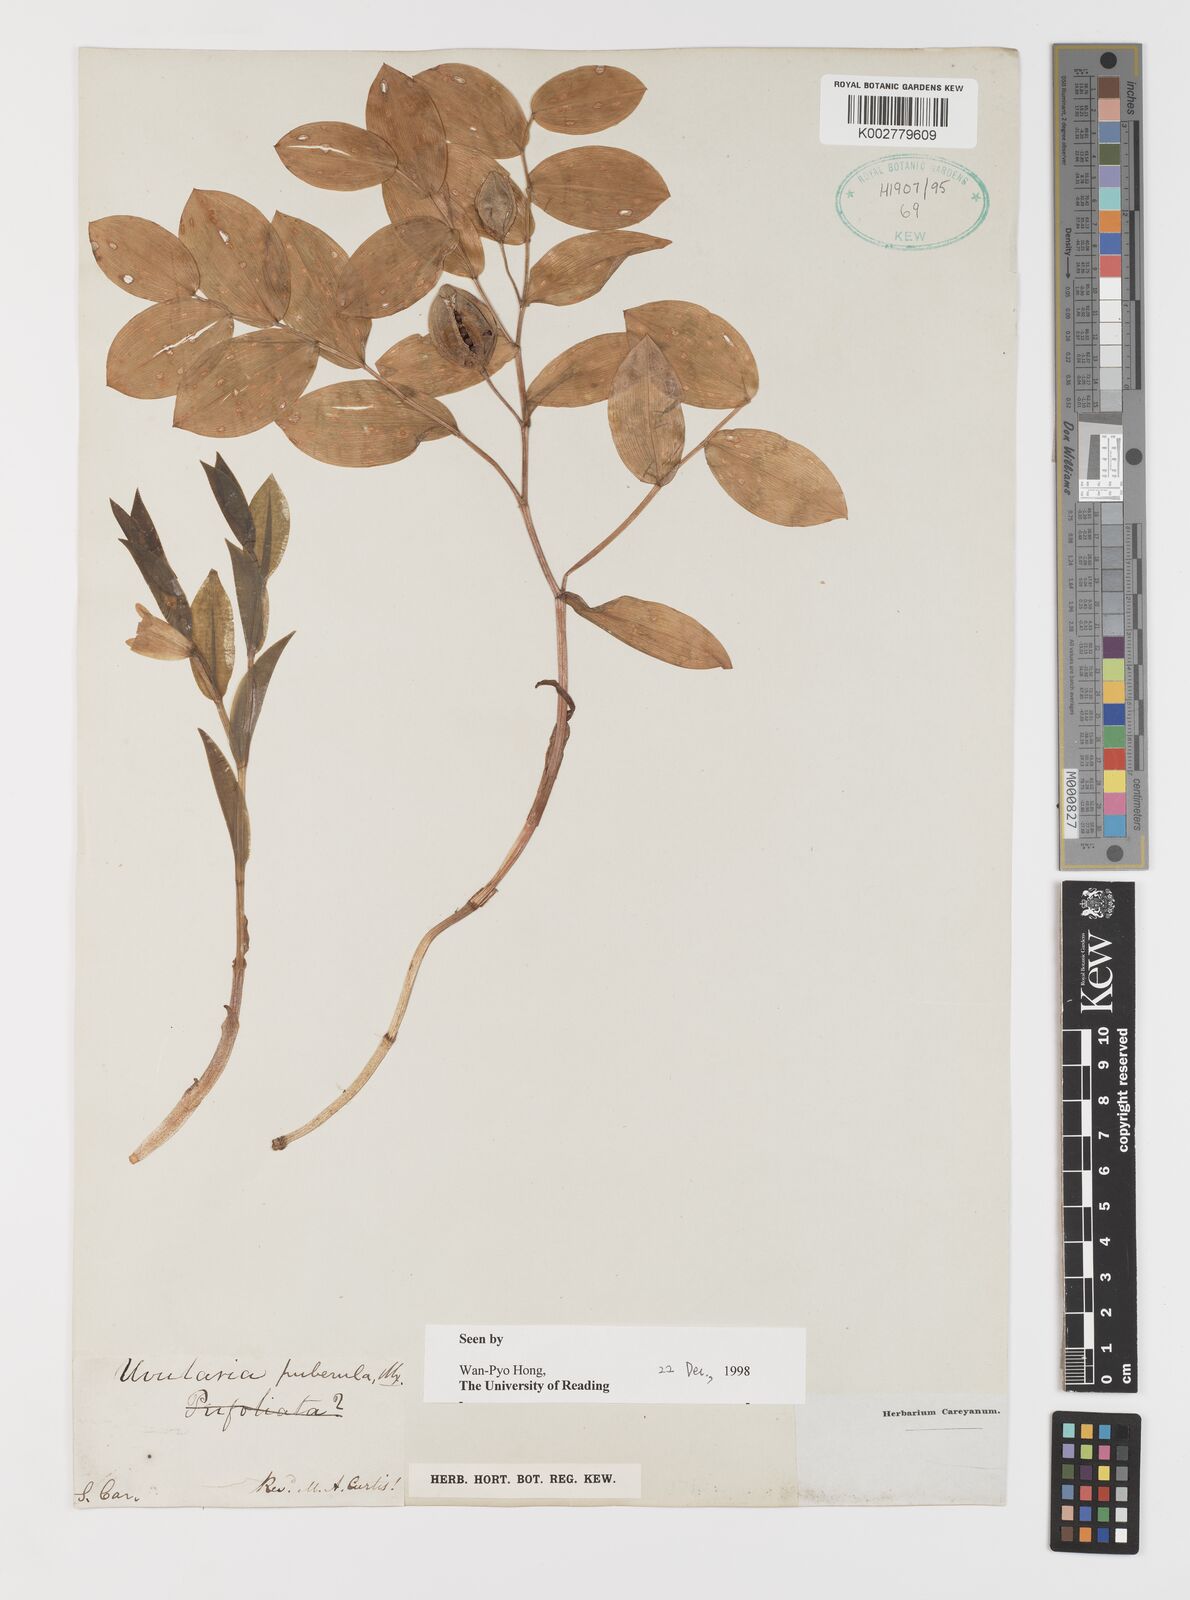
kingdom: Plantae
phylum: Tracheophyta
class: Liliopsida
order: Liliales
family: Colchicaceae
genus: Uvularia
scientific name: Uvularia puberula
